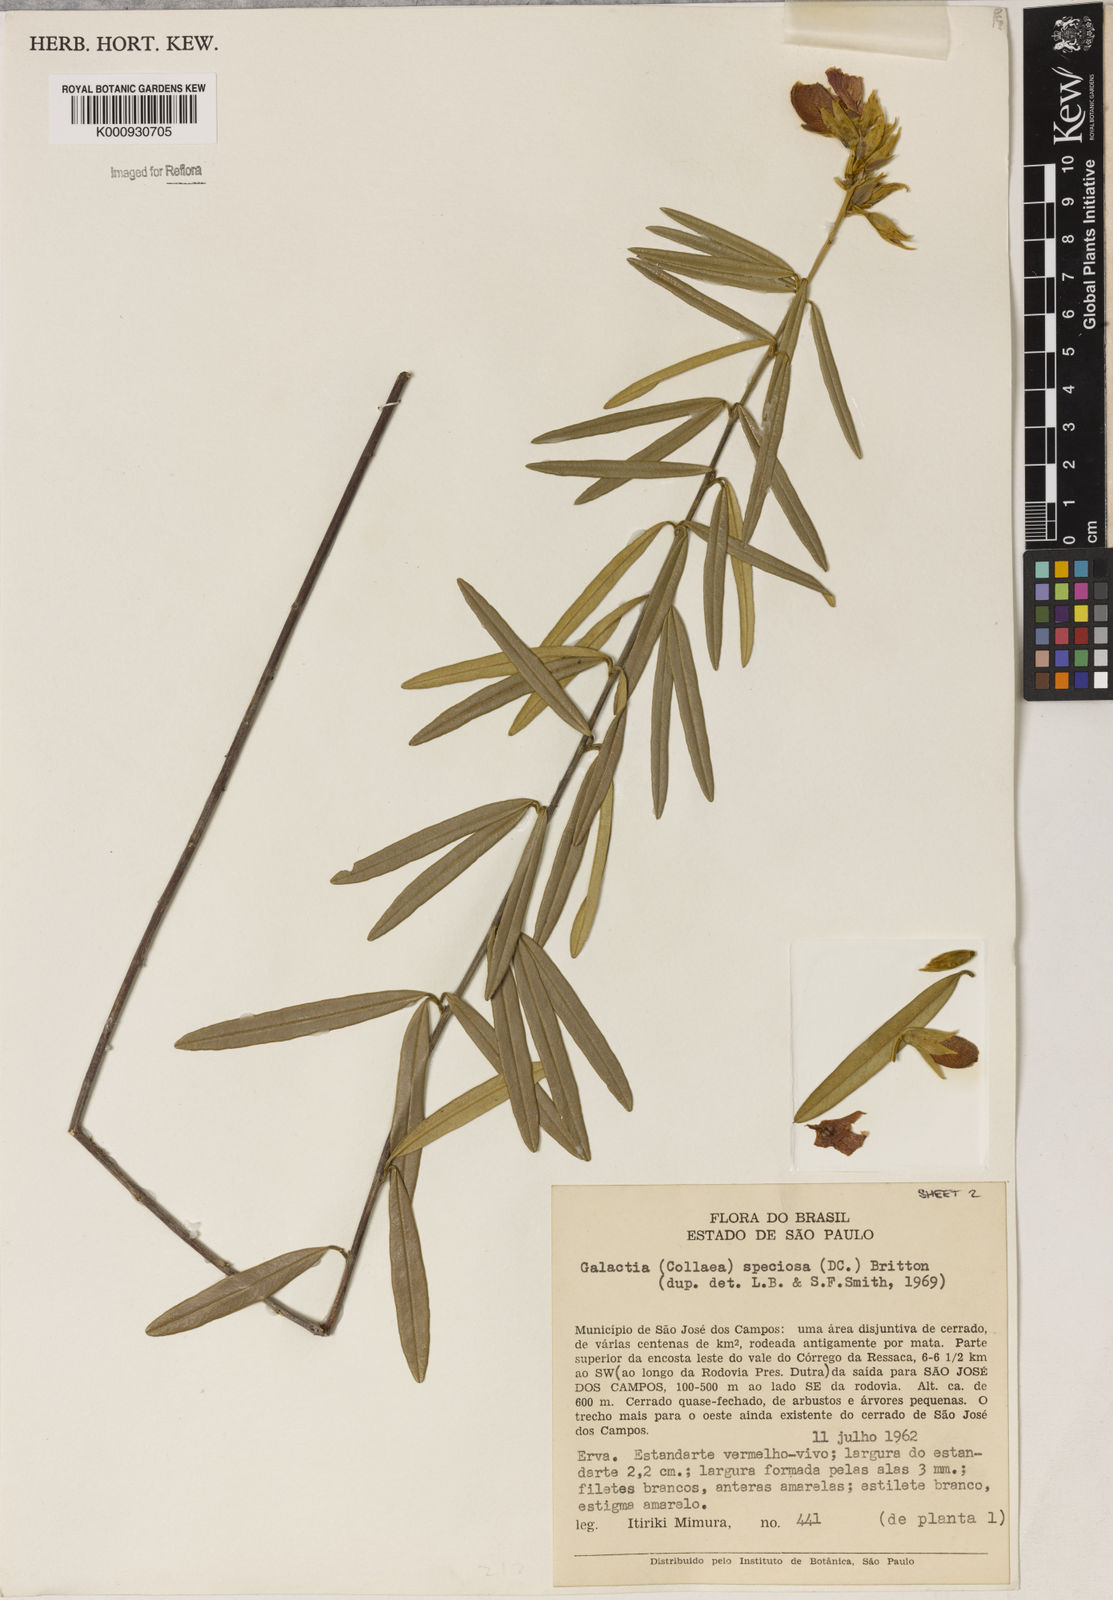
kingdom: Plantae
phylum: Tracheophyta
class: Magnoliopsida
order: Lamiales
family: Lamiaceae
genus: Coleus
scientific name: Coleus barbatus
